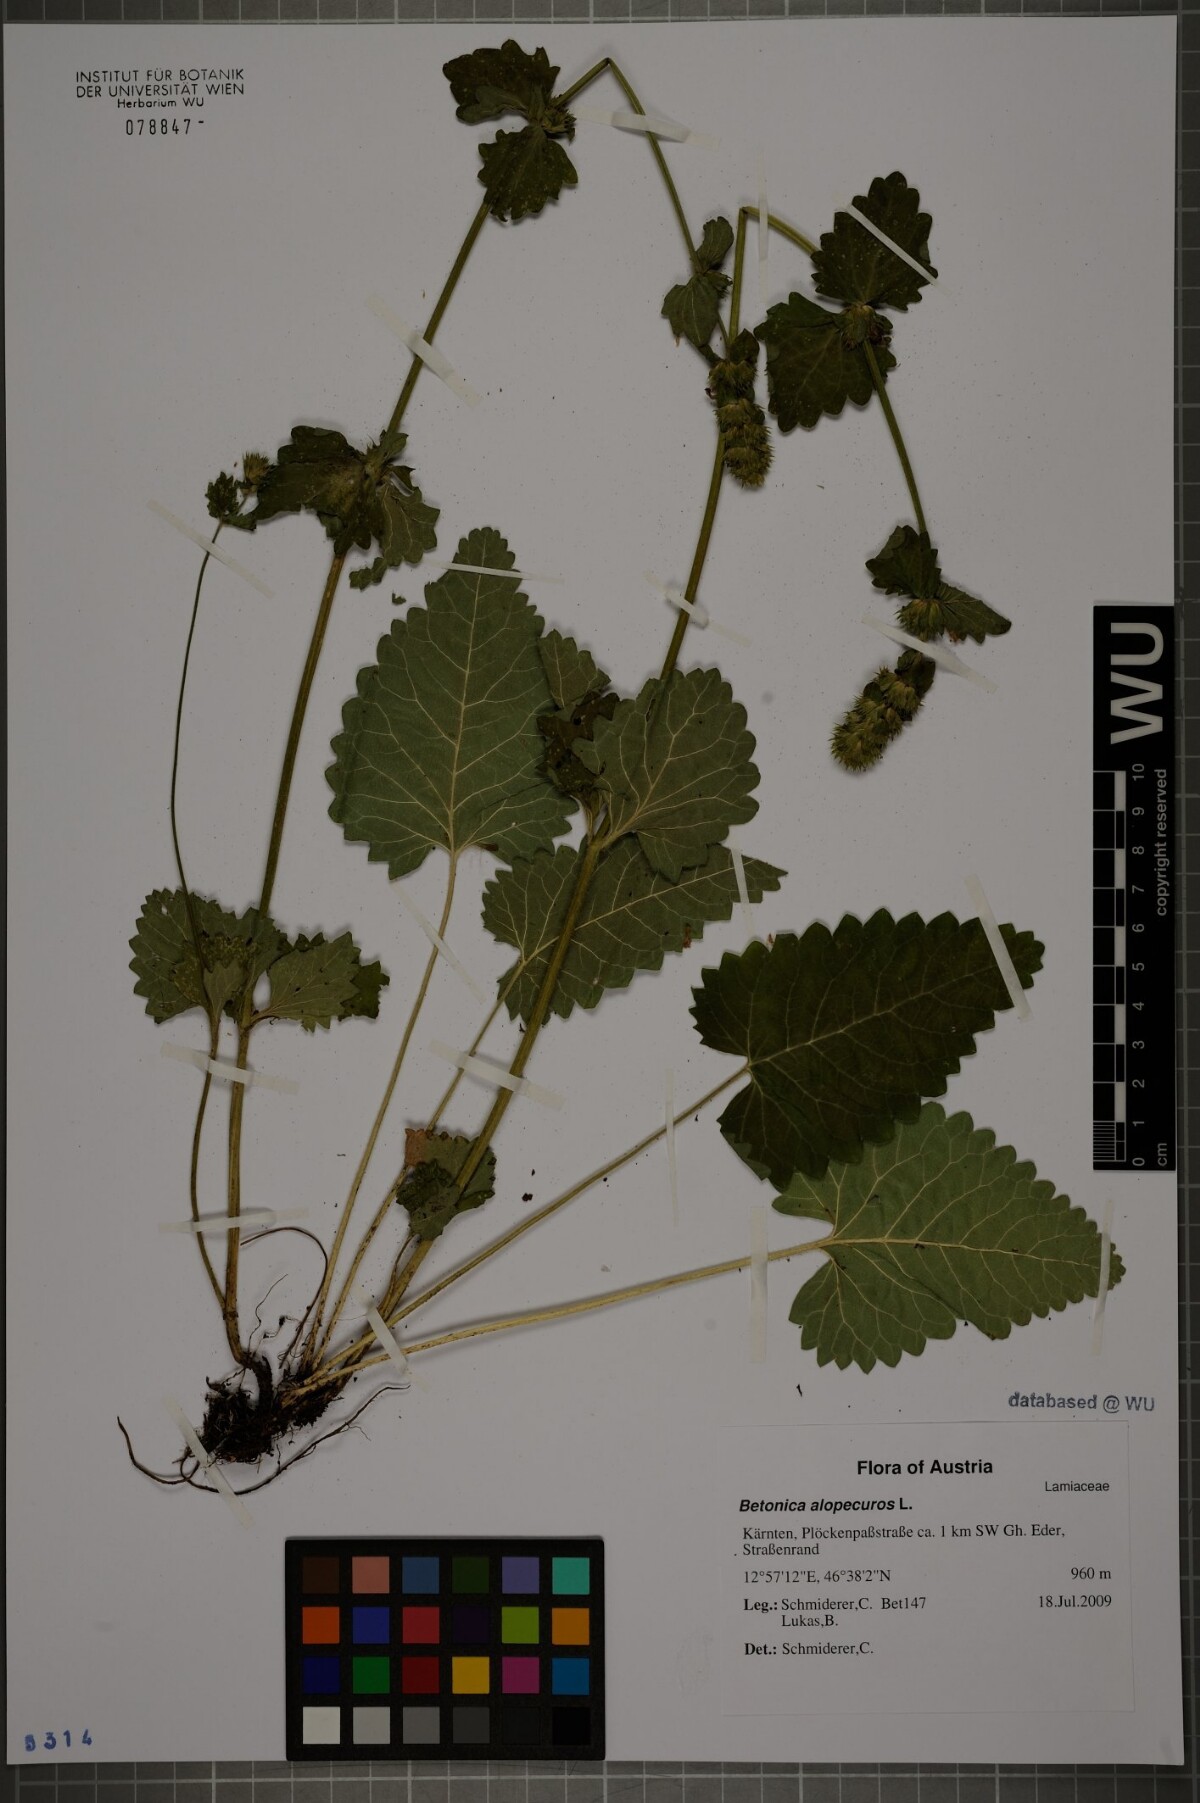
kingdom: Plantae
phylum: Tracheophyta
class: Magnoliopsida
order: Lamiales
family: Lamiaceae
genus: Betonica
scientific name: Betonica alopecuros
